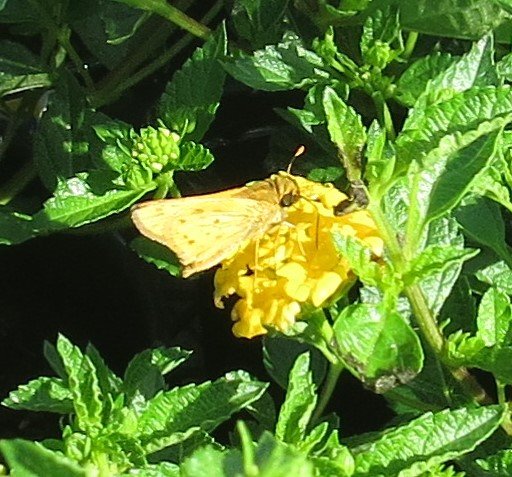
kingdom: Animalia
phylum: Arthropoda
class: Insecta
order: Lepidoptera
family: Hesperiidae
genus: Hylephila
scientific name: Hylephila phyleus
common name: Fiery Skipper
